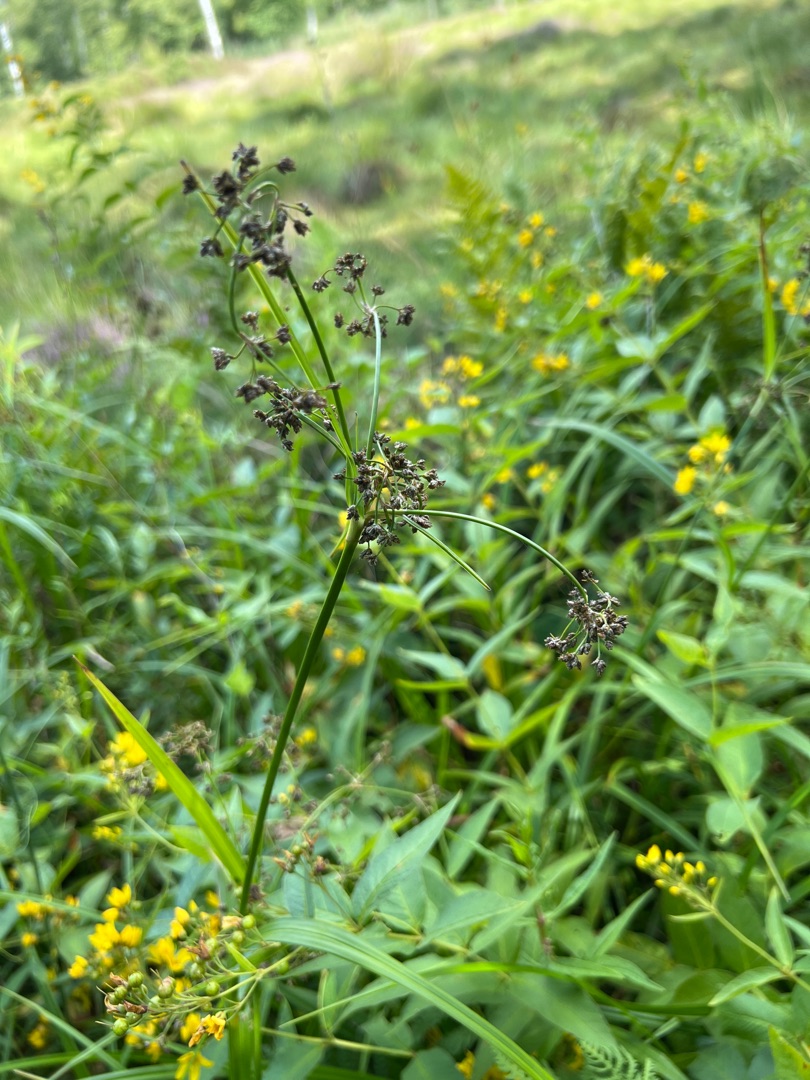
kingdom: Plantae
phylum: Tracheophyta
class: Liliopsida
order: Poales
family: Cyperaceae
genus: Scirpus
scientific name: Scirpus sylvaticus
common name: Skov-kogleaks
